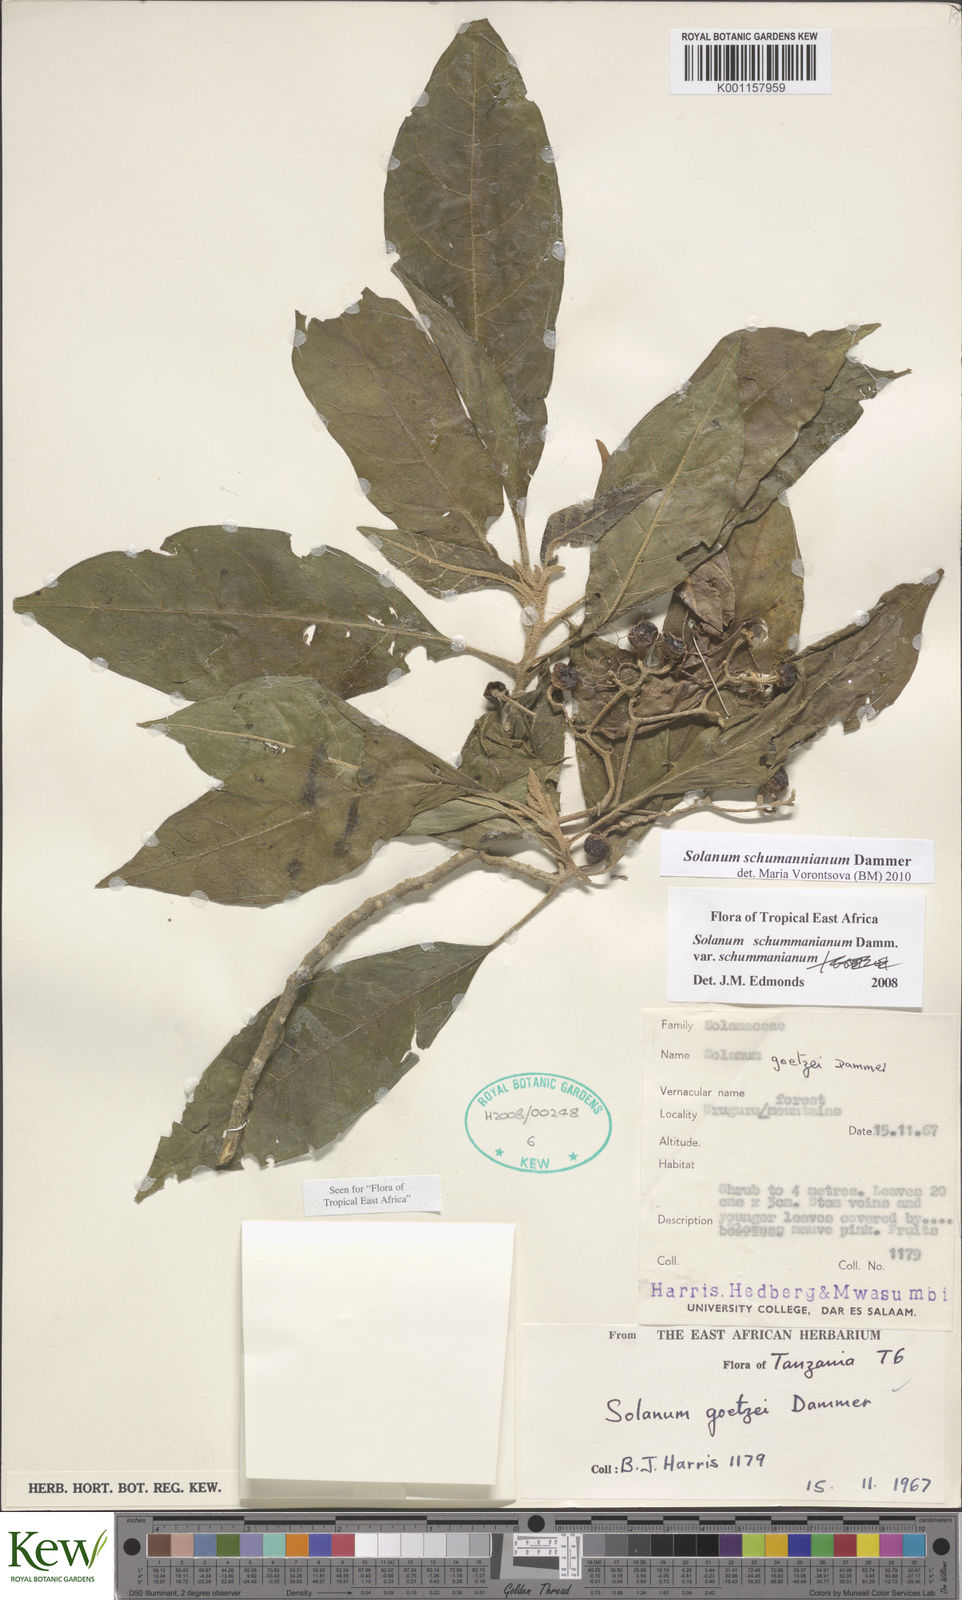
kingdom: Plantae
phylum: Tracheophyta
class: Magnoliopsida
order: Solanales
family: Solanaceae
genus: Solanum
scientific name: Solanum schumannianum
